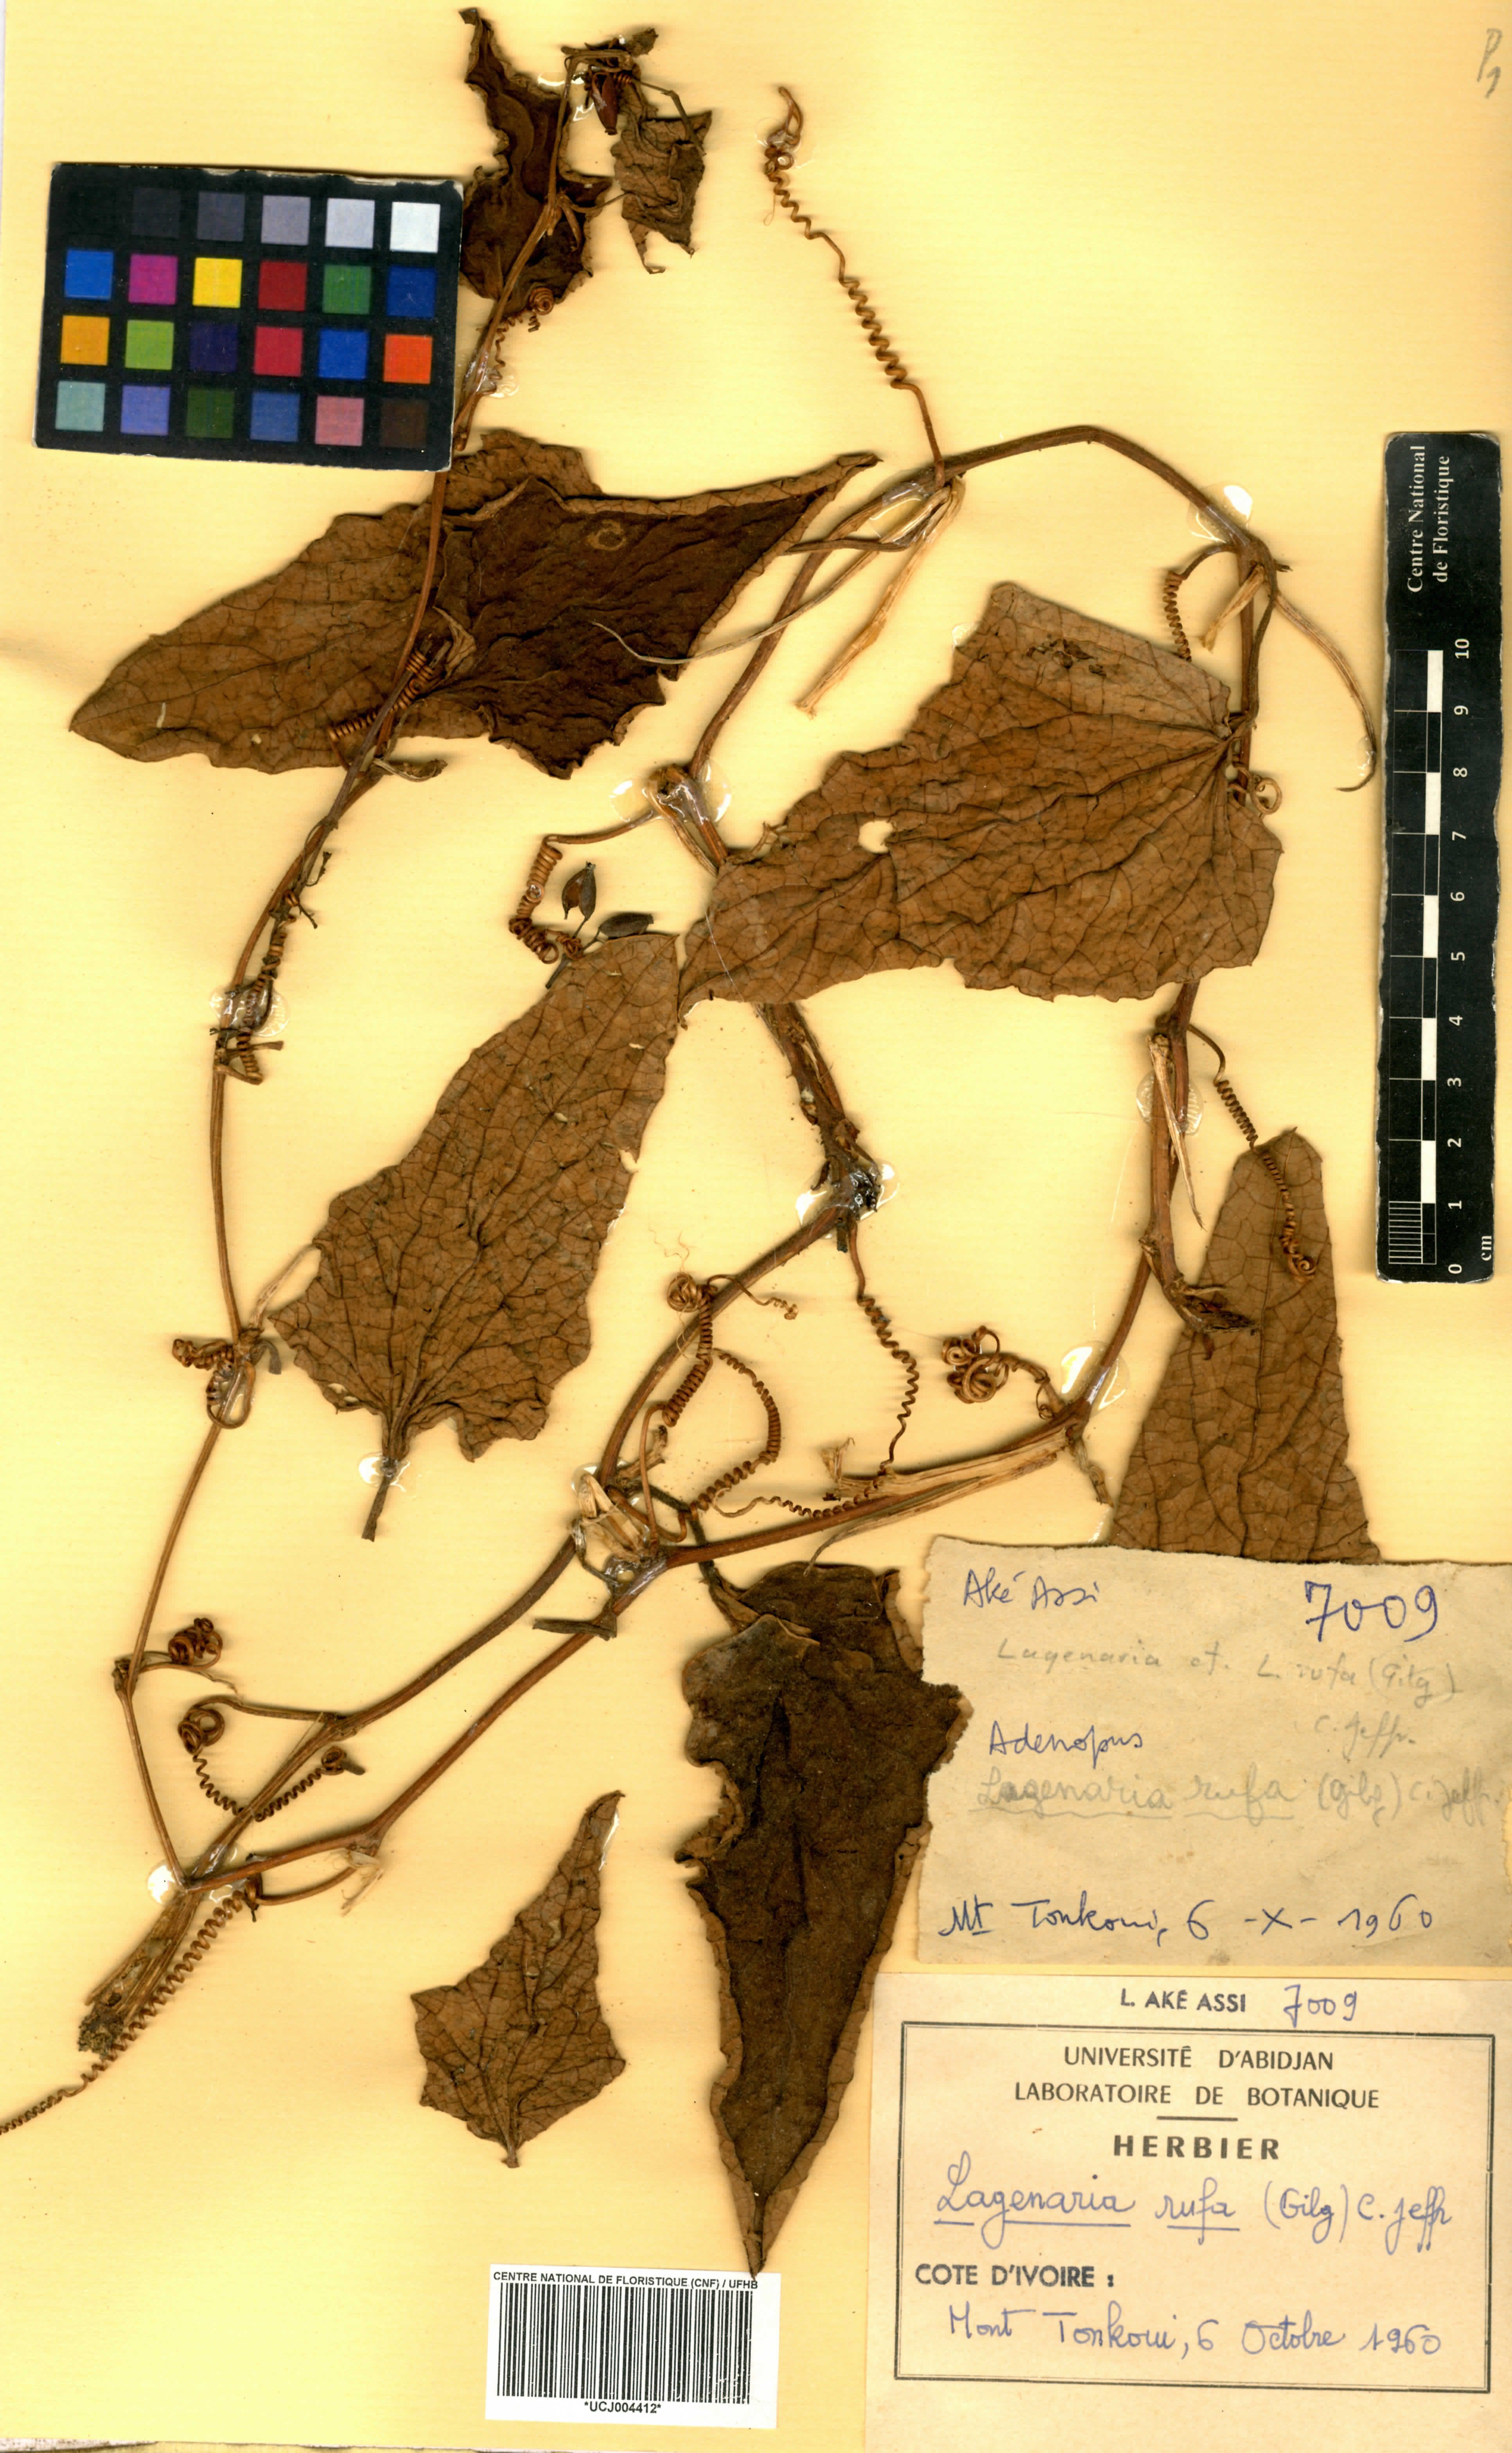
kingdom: Plantae
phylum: Tracheophyta
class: Magnoliopsida
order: Cucurbitales
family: Cucurbitaceae
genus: Lagenaria
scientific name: Lagenaria rufa
